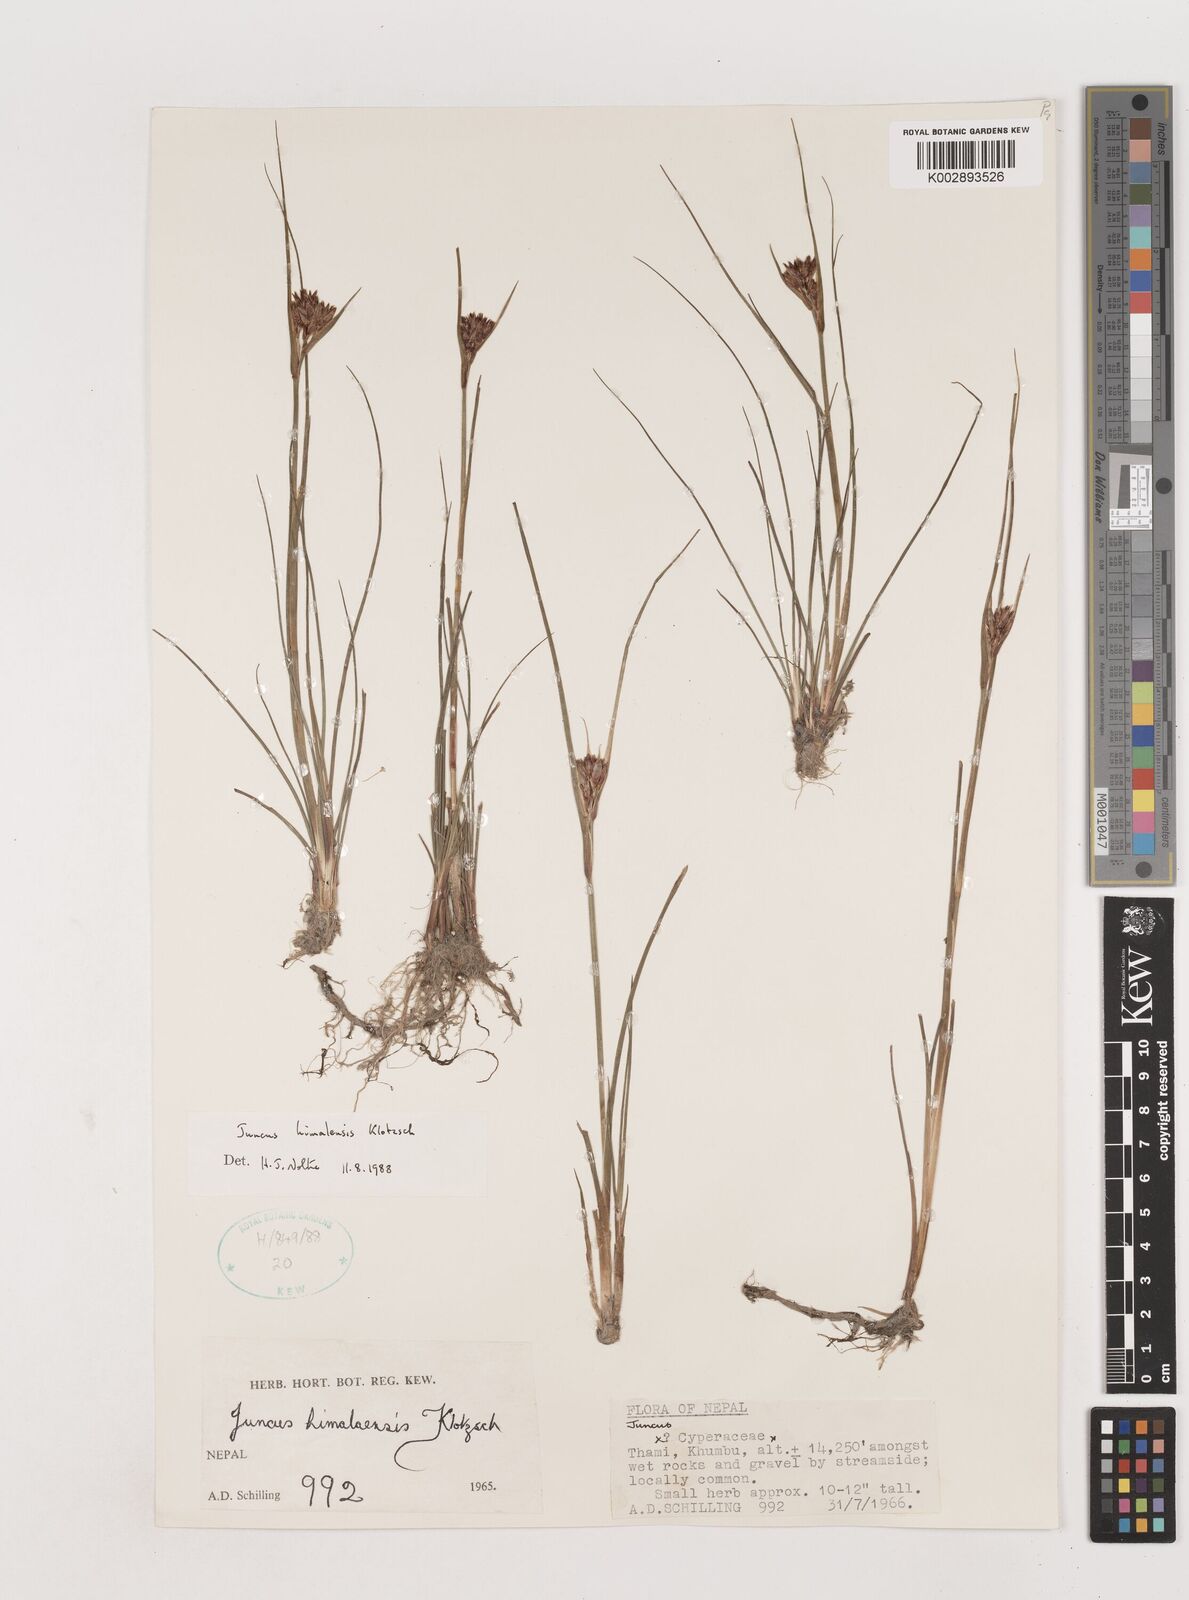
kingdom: Plantae
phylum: Tracheophyta
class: Liliopsida
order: Poales
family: Juncaceae
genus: Juncus
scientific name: Juncus himalensis
